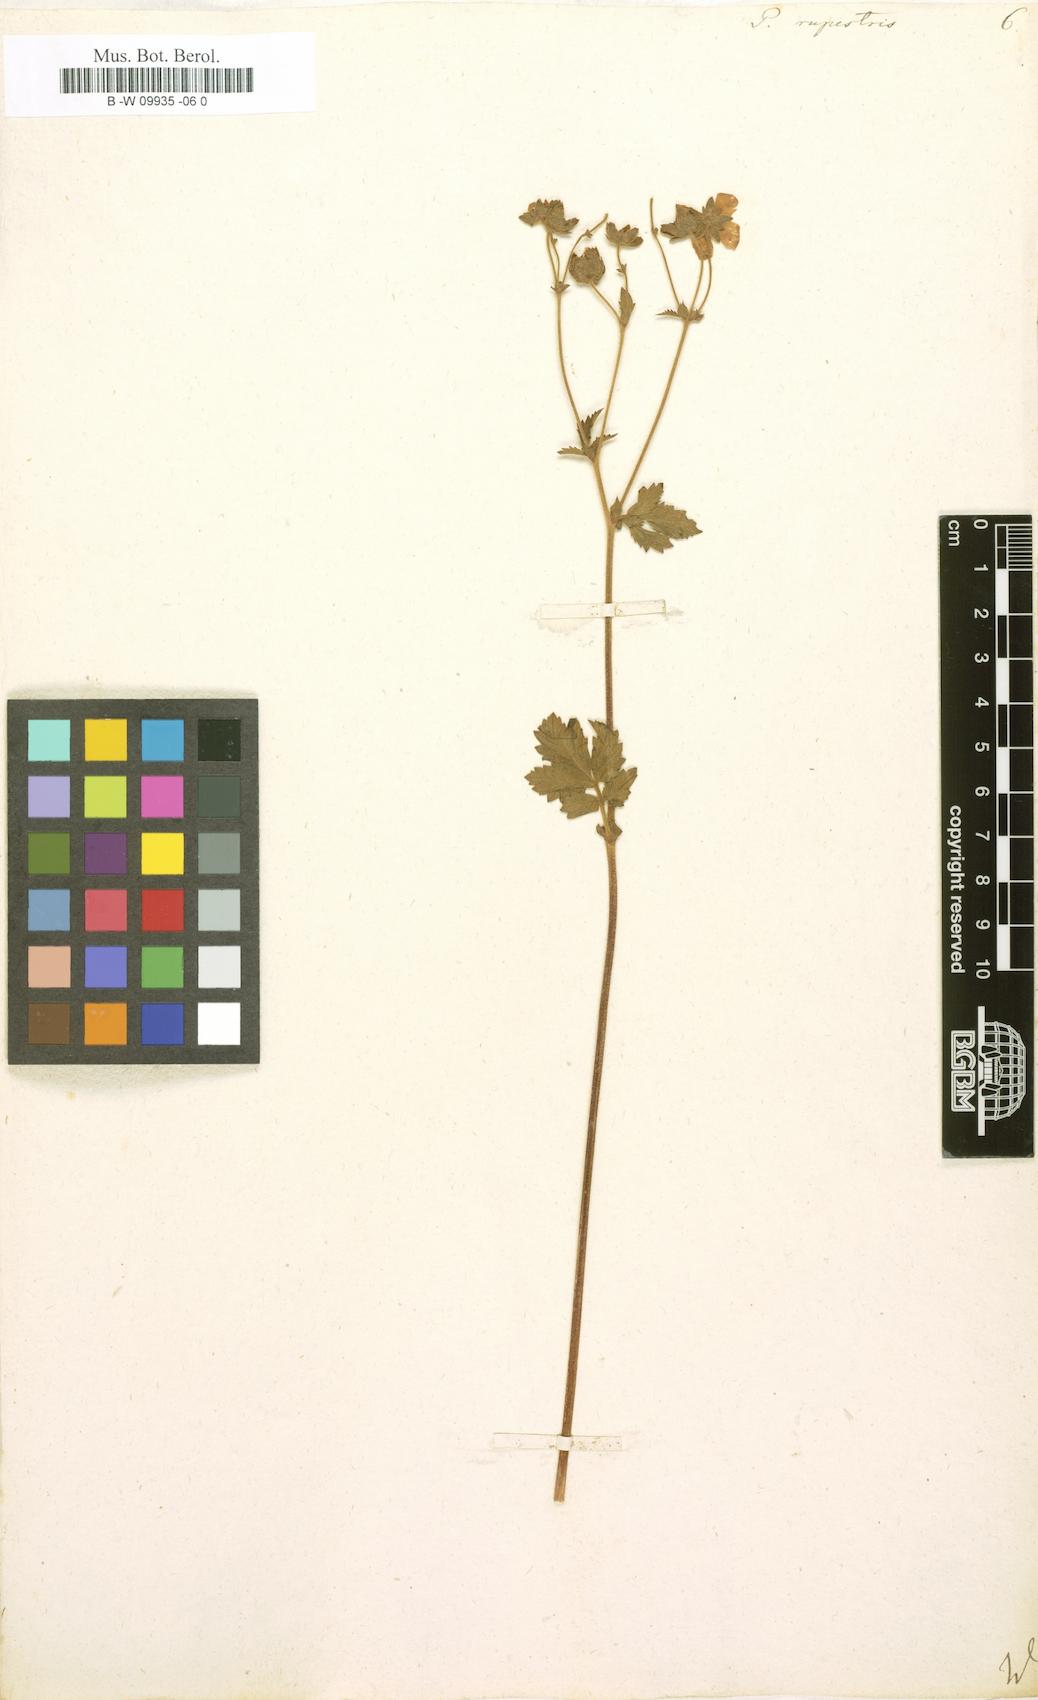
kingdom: Plantae
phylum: Tracheophyta
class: Magnoliopsida
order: Rosales
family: Rosaceae
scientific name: Rosaceae
